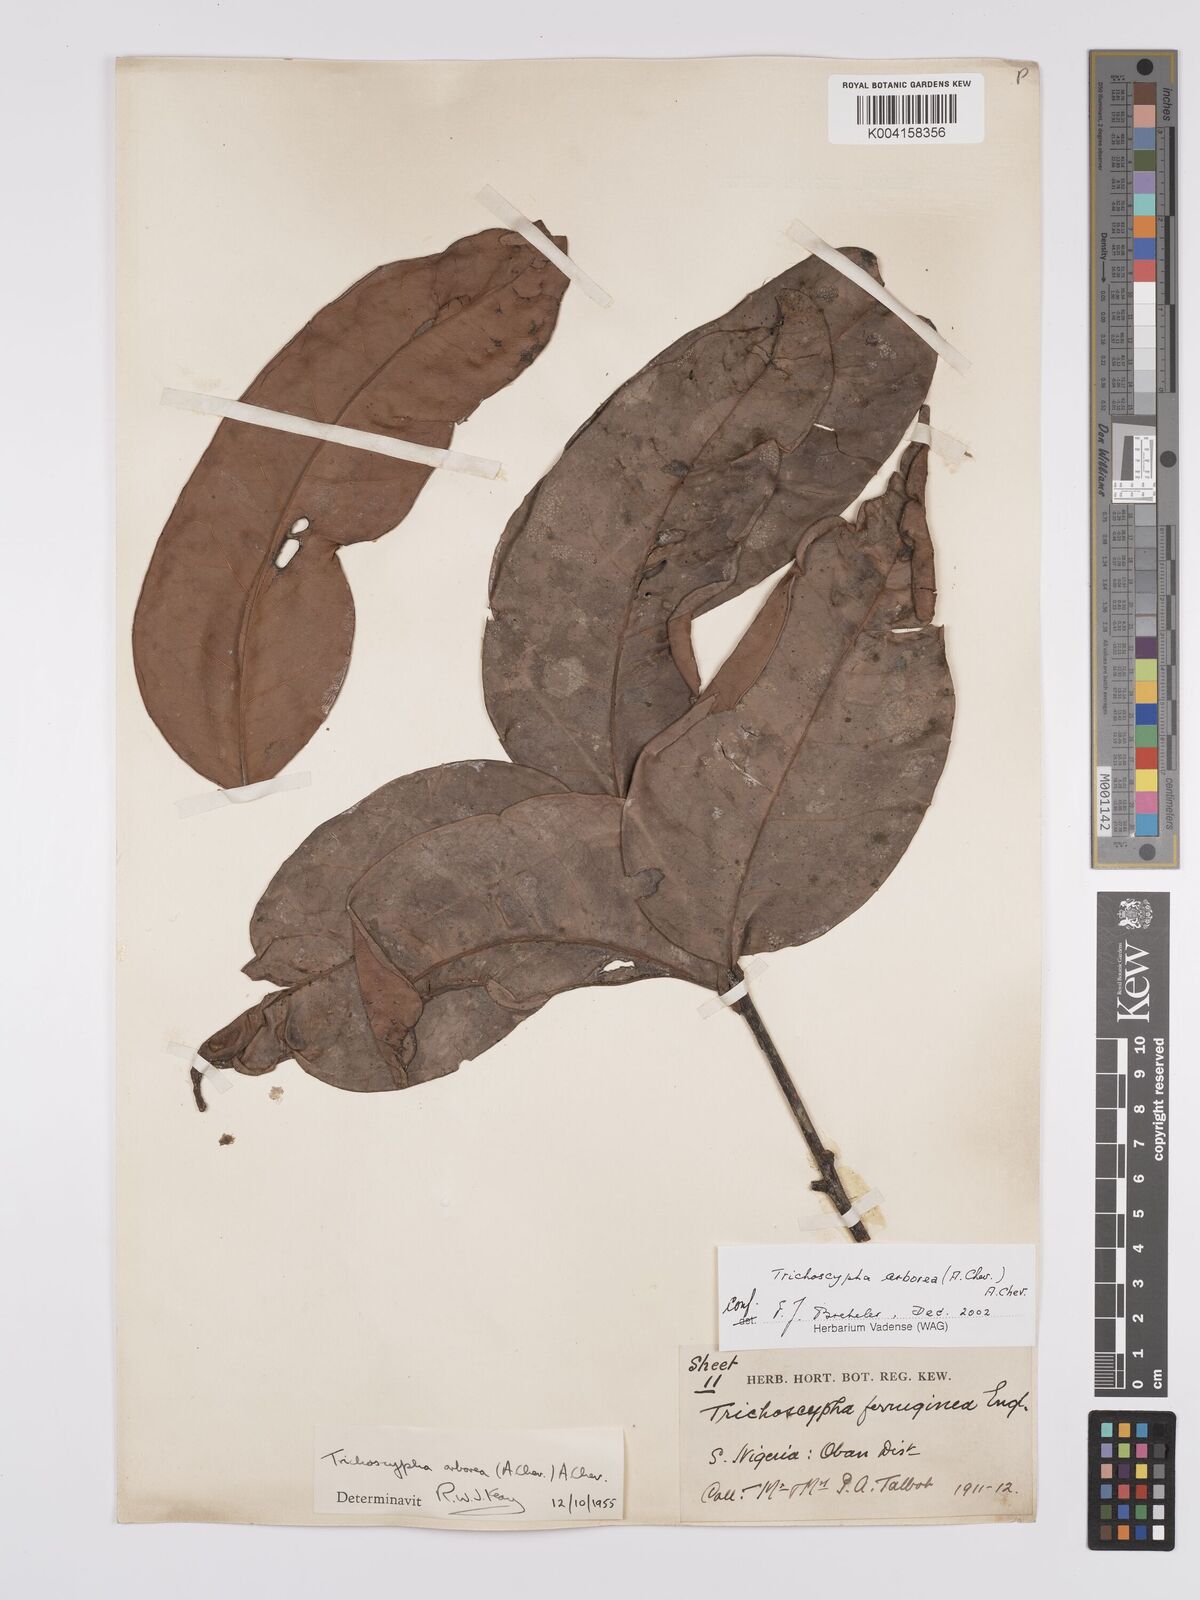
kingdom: Plantae
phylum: Tracheophyta
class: Magnoliopsida
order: Sapindales
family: Anacardiaceae
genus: Trichoscypha
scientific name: Trichoscypha arborea
